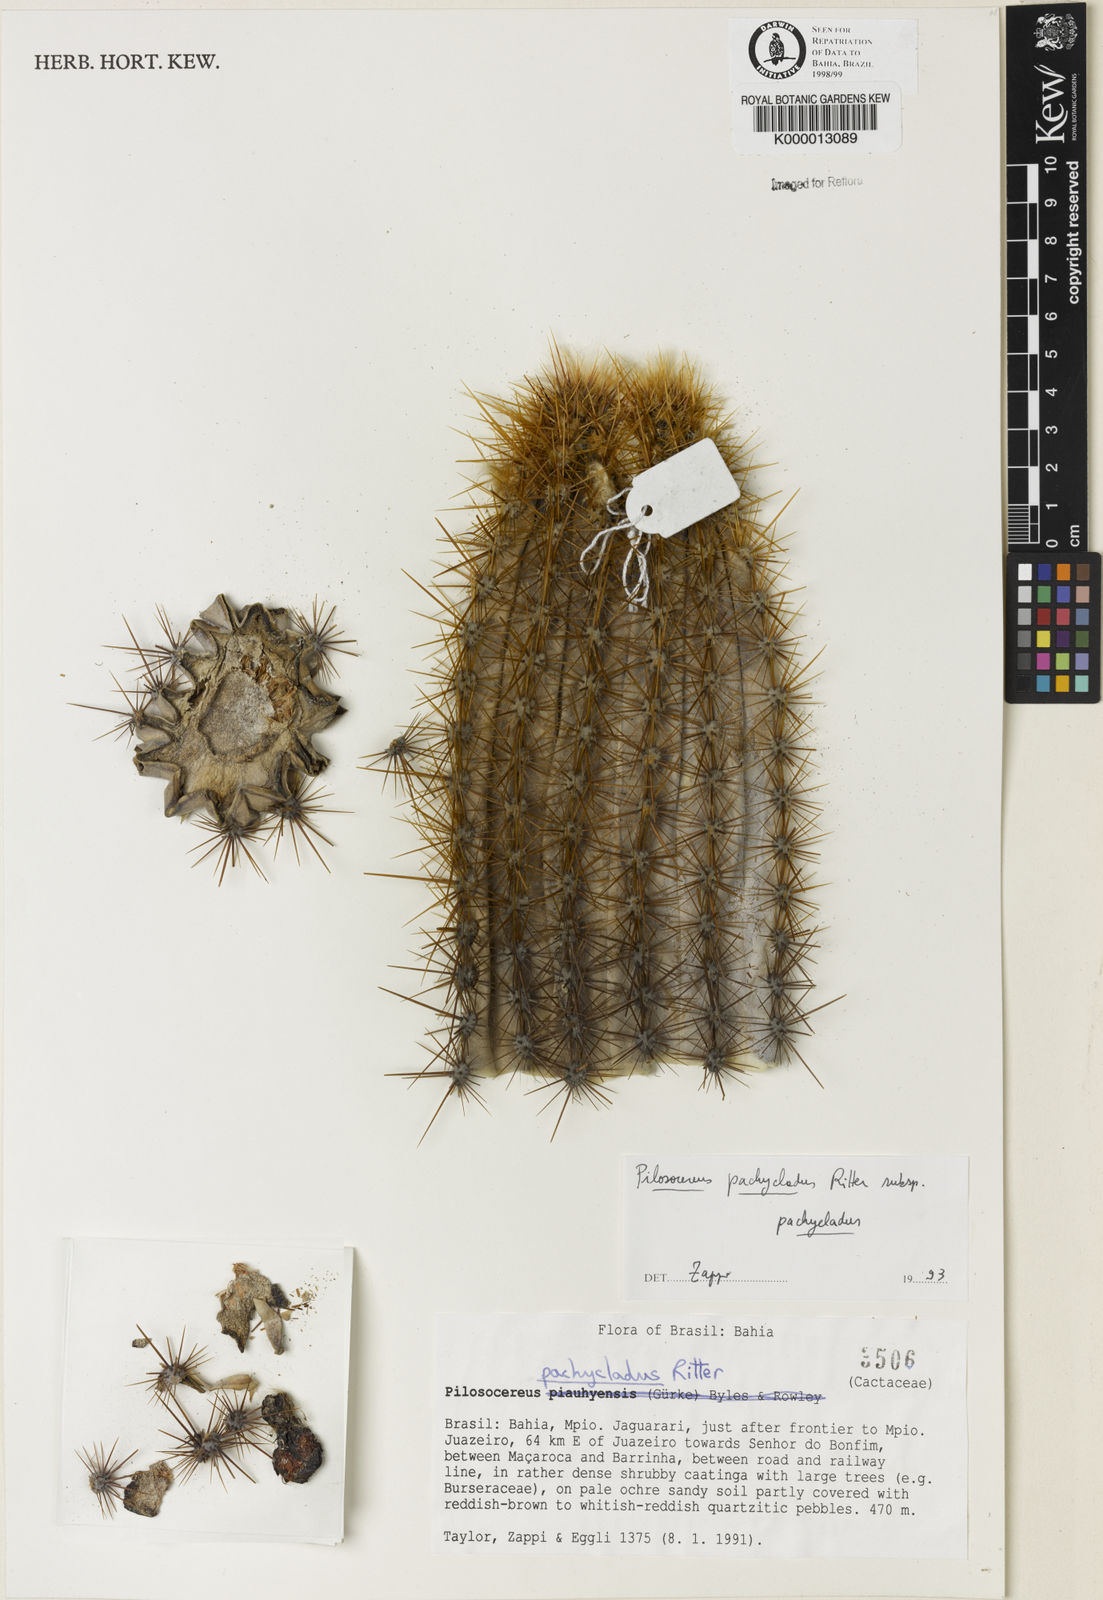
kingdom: Plantae
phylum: Tracheophyta
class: Magnoliopsida
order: Caryophyllales
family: Cactaceae
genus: Pilosocereus
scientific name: Pilosocereus pachycladus
